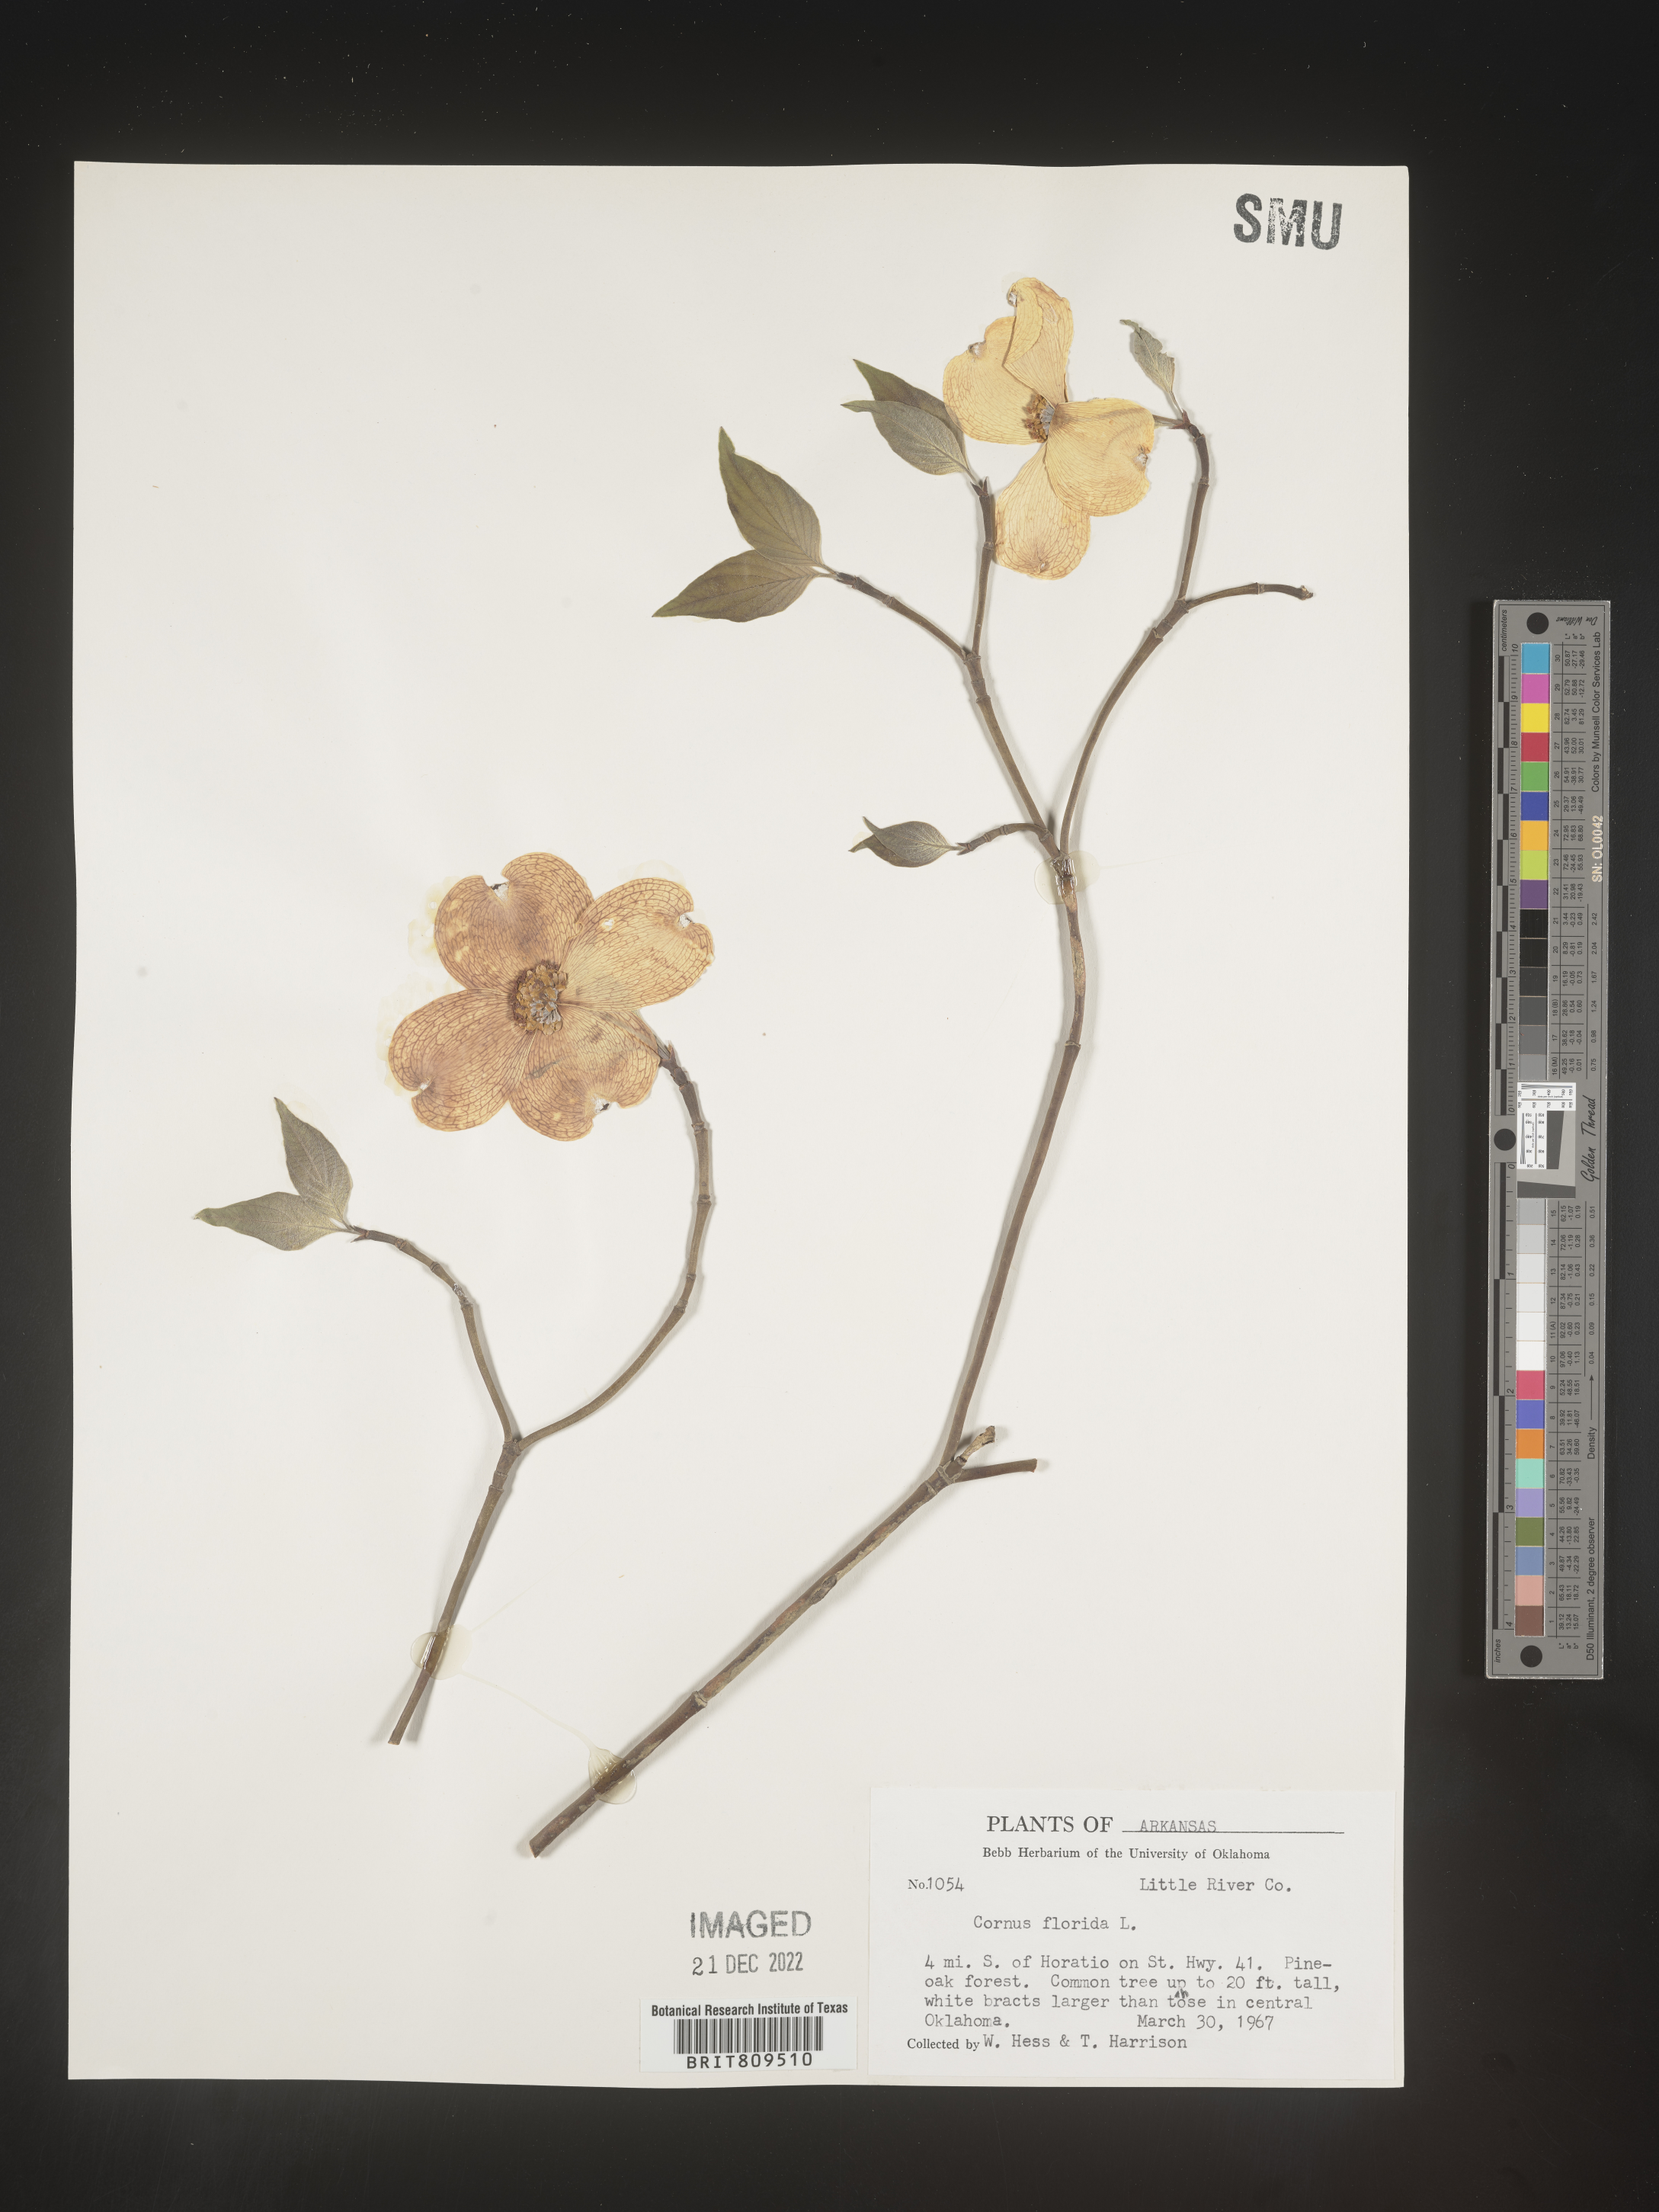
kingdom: Plantae
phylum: Tracheophyta
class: Magnoliopsida
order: Cornales
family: Cornaceae
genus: Cornus
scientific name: Cornus florida
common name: Flowering dogwood
